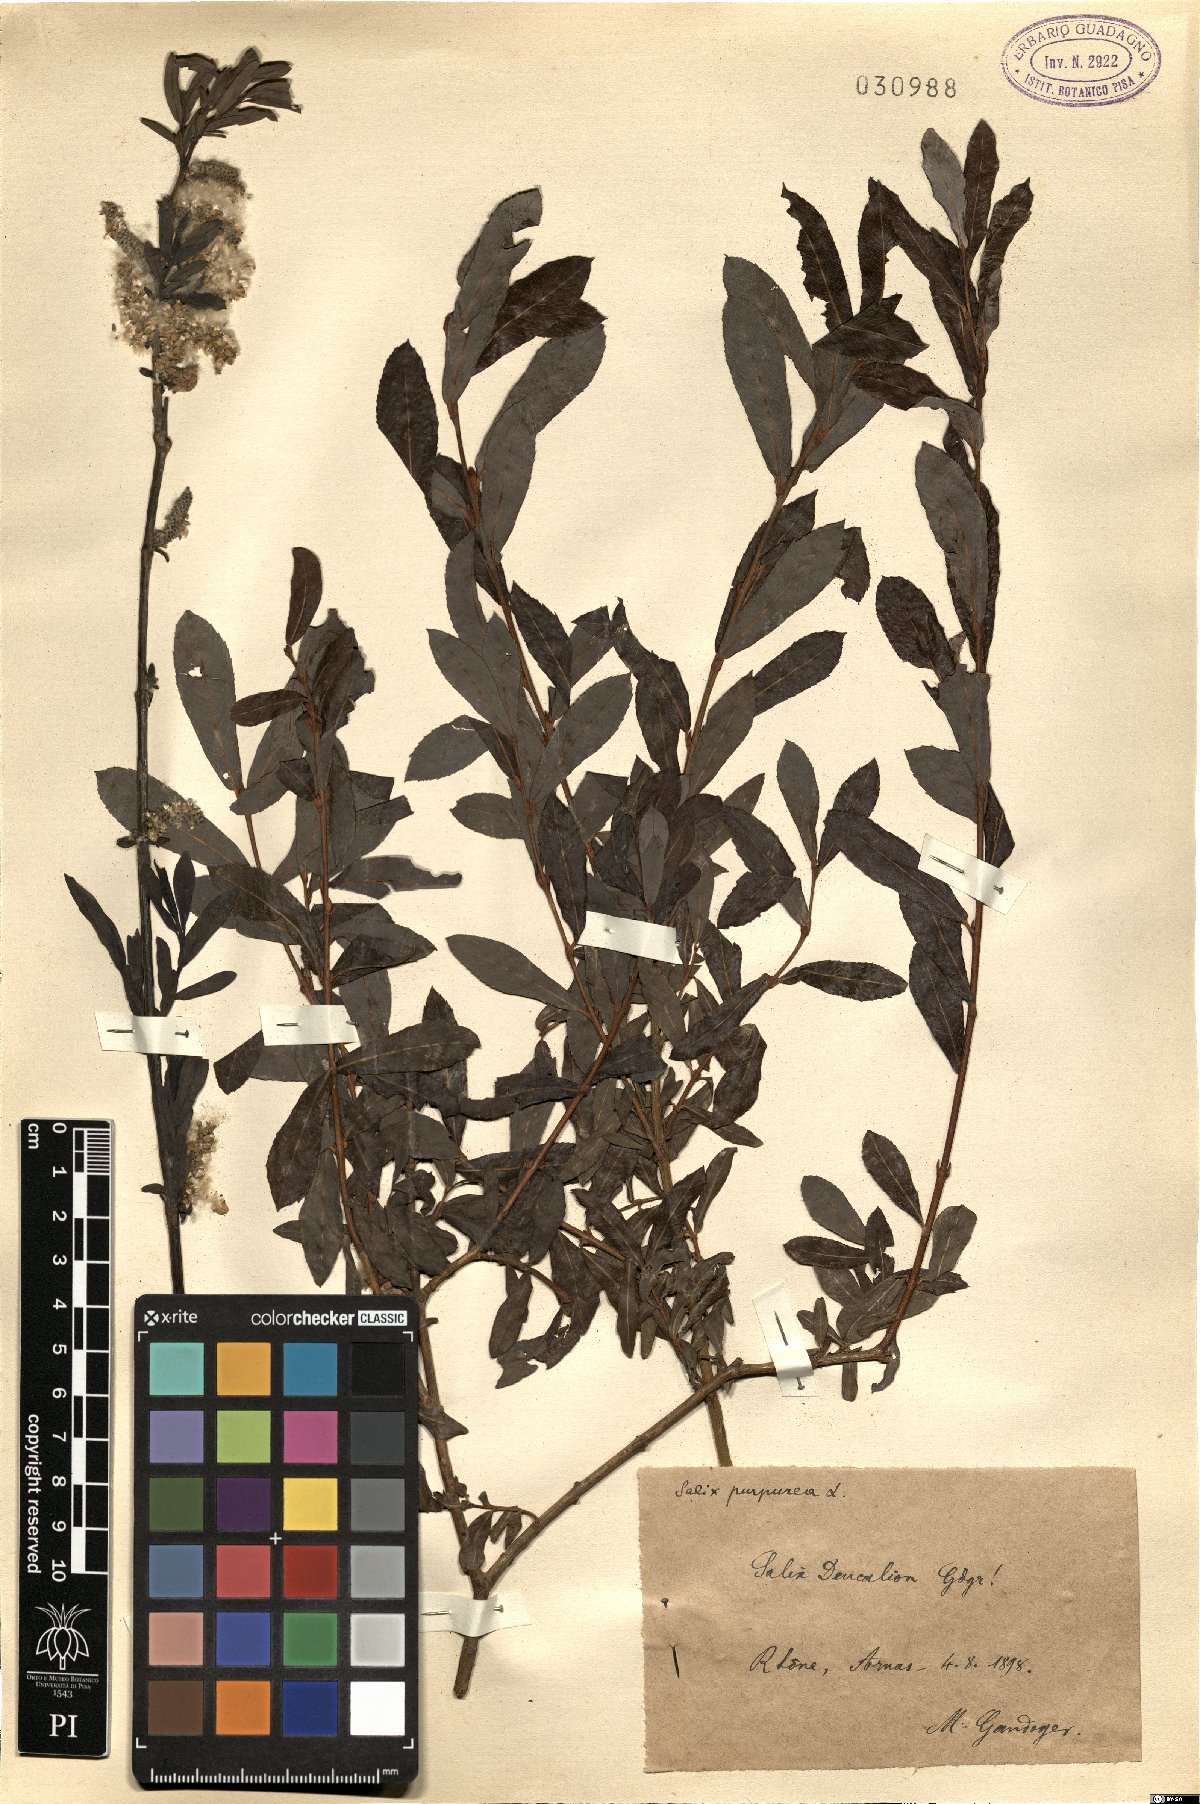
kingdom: Plantae
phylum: Tracheophyta
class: Magnoliopsida
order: Malpighiales
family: Salicaceae
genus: Salix
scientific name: Salix purpurea
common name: Purple willow
